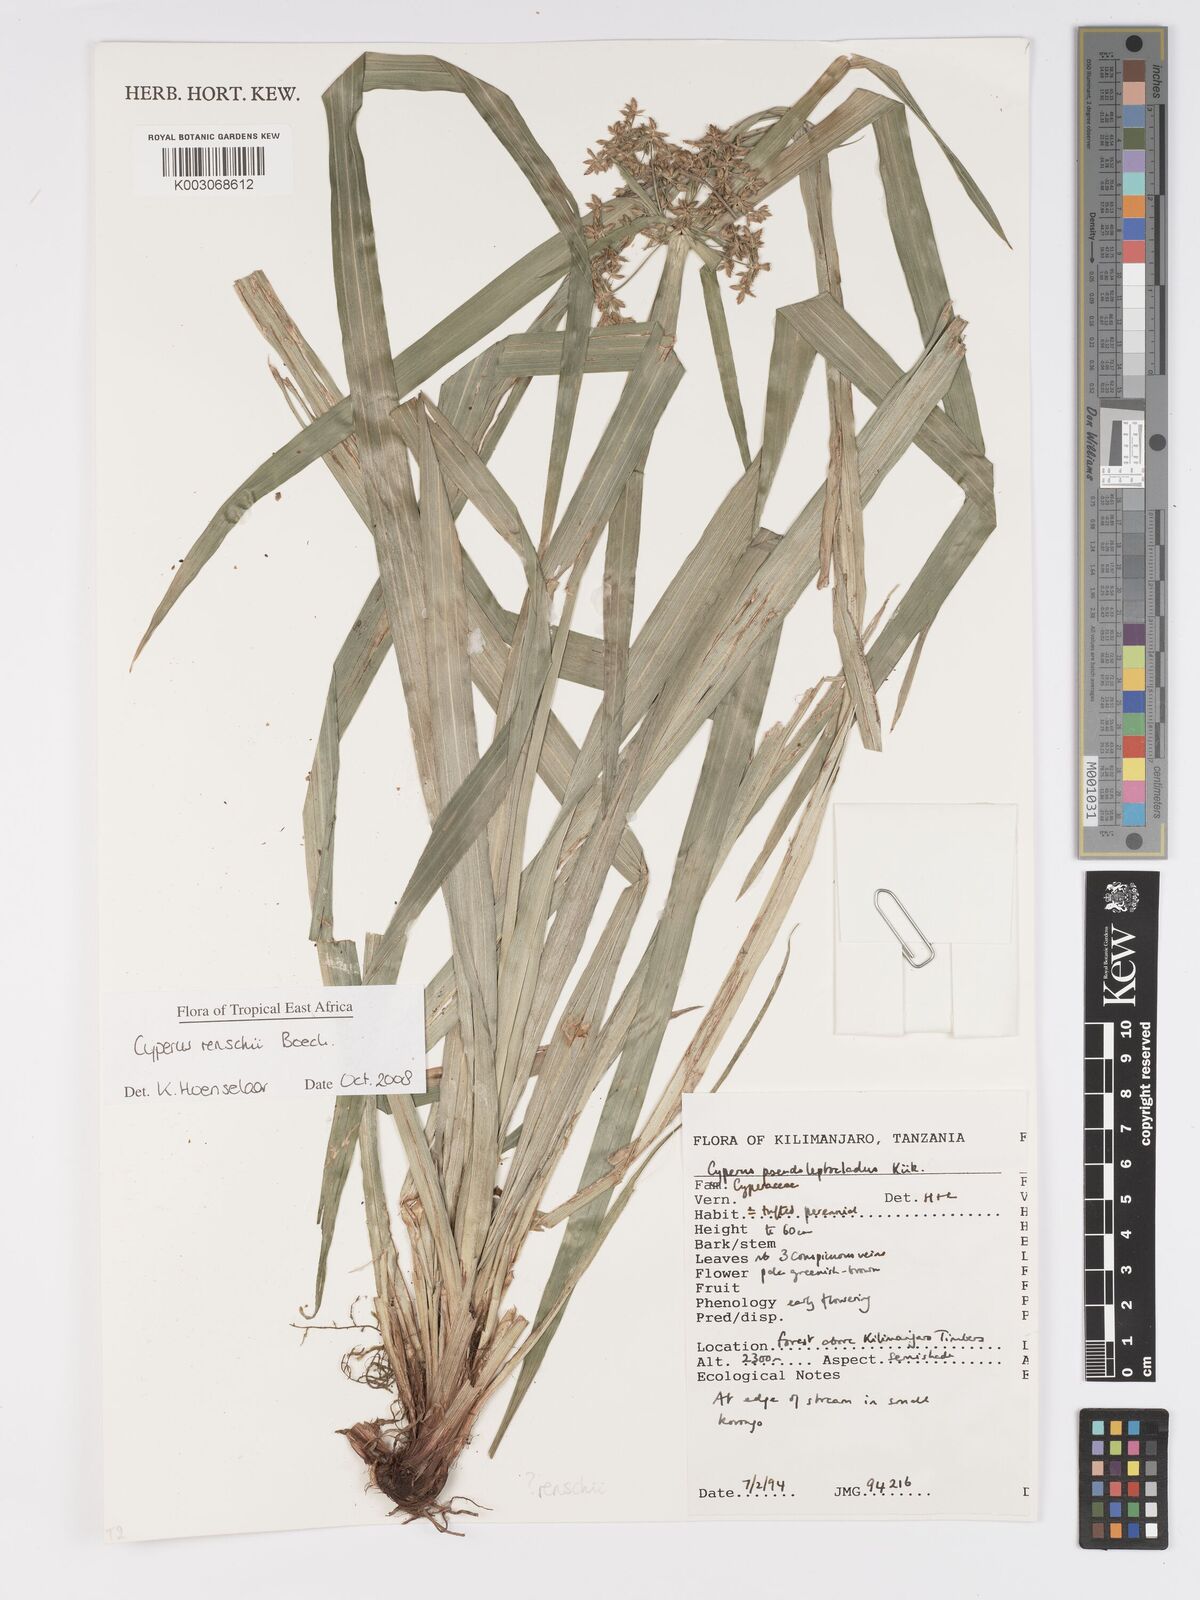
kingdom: Plantae
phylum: Tracheophyta
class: Liliopsida
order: Poales
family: Cyperaceae
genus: Cyperus
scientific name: Cyperus renschii
